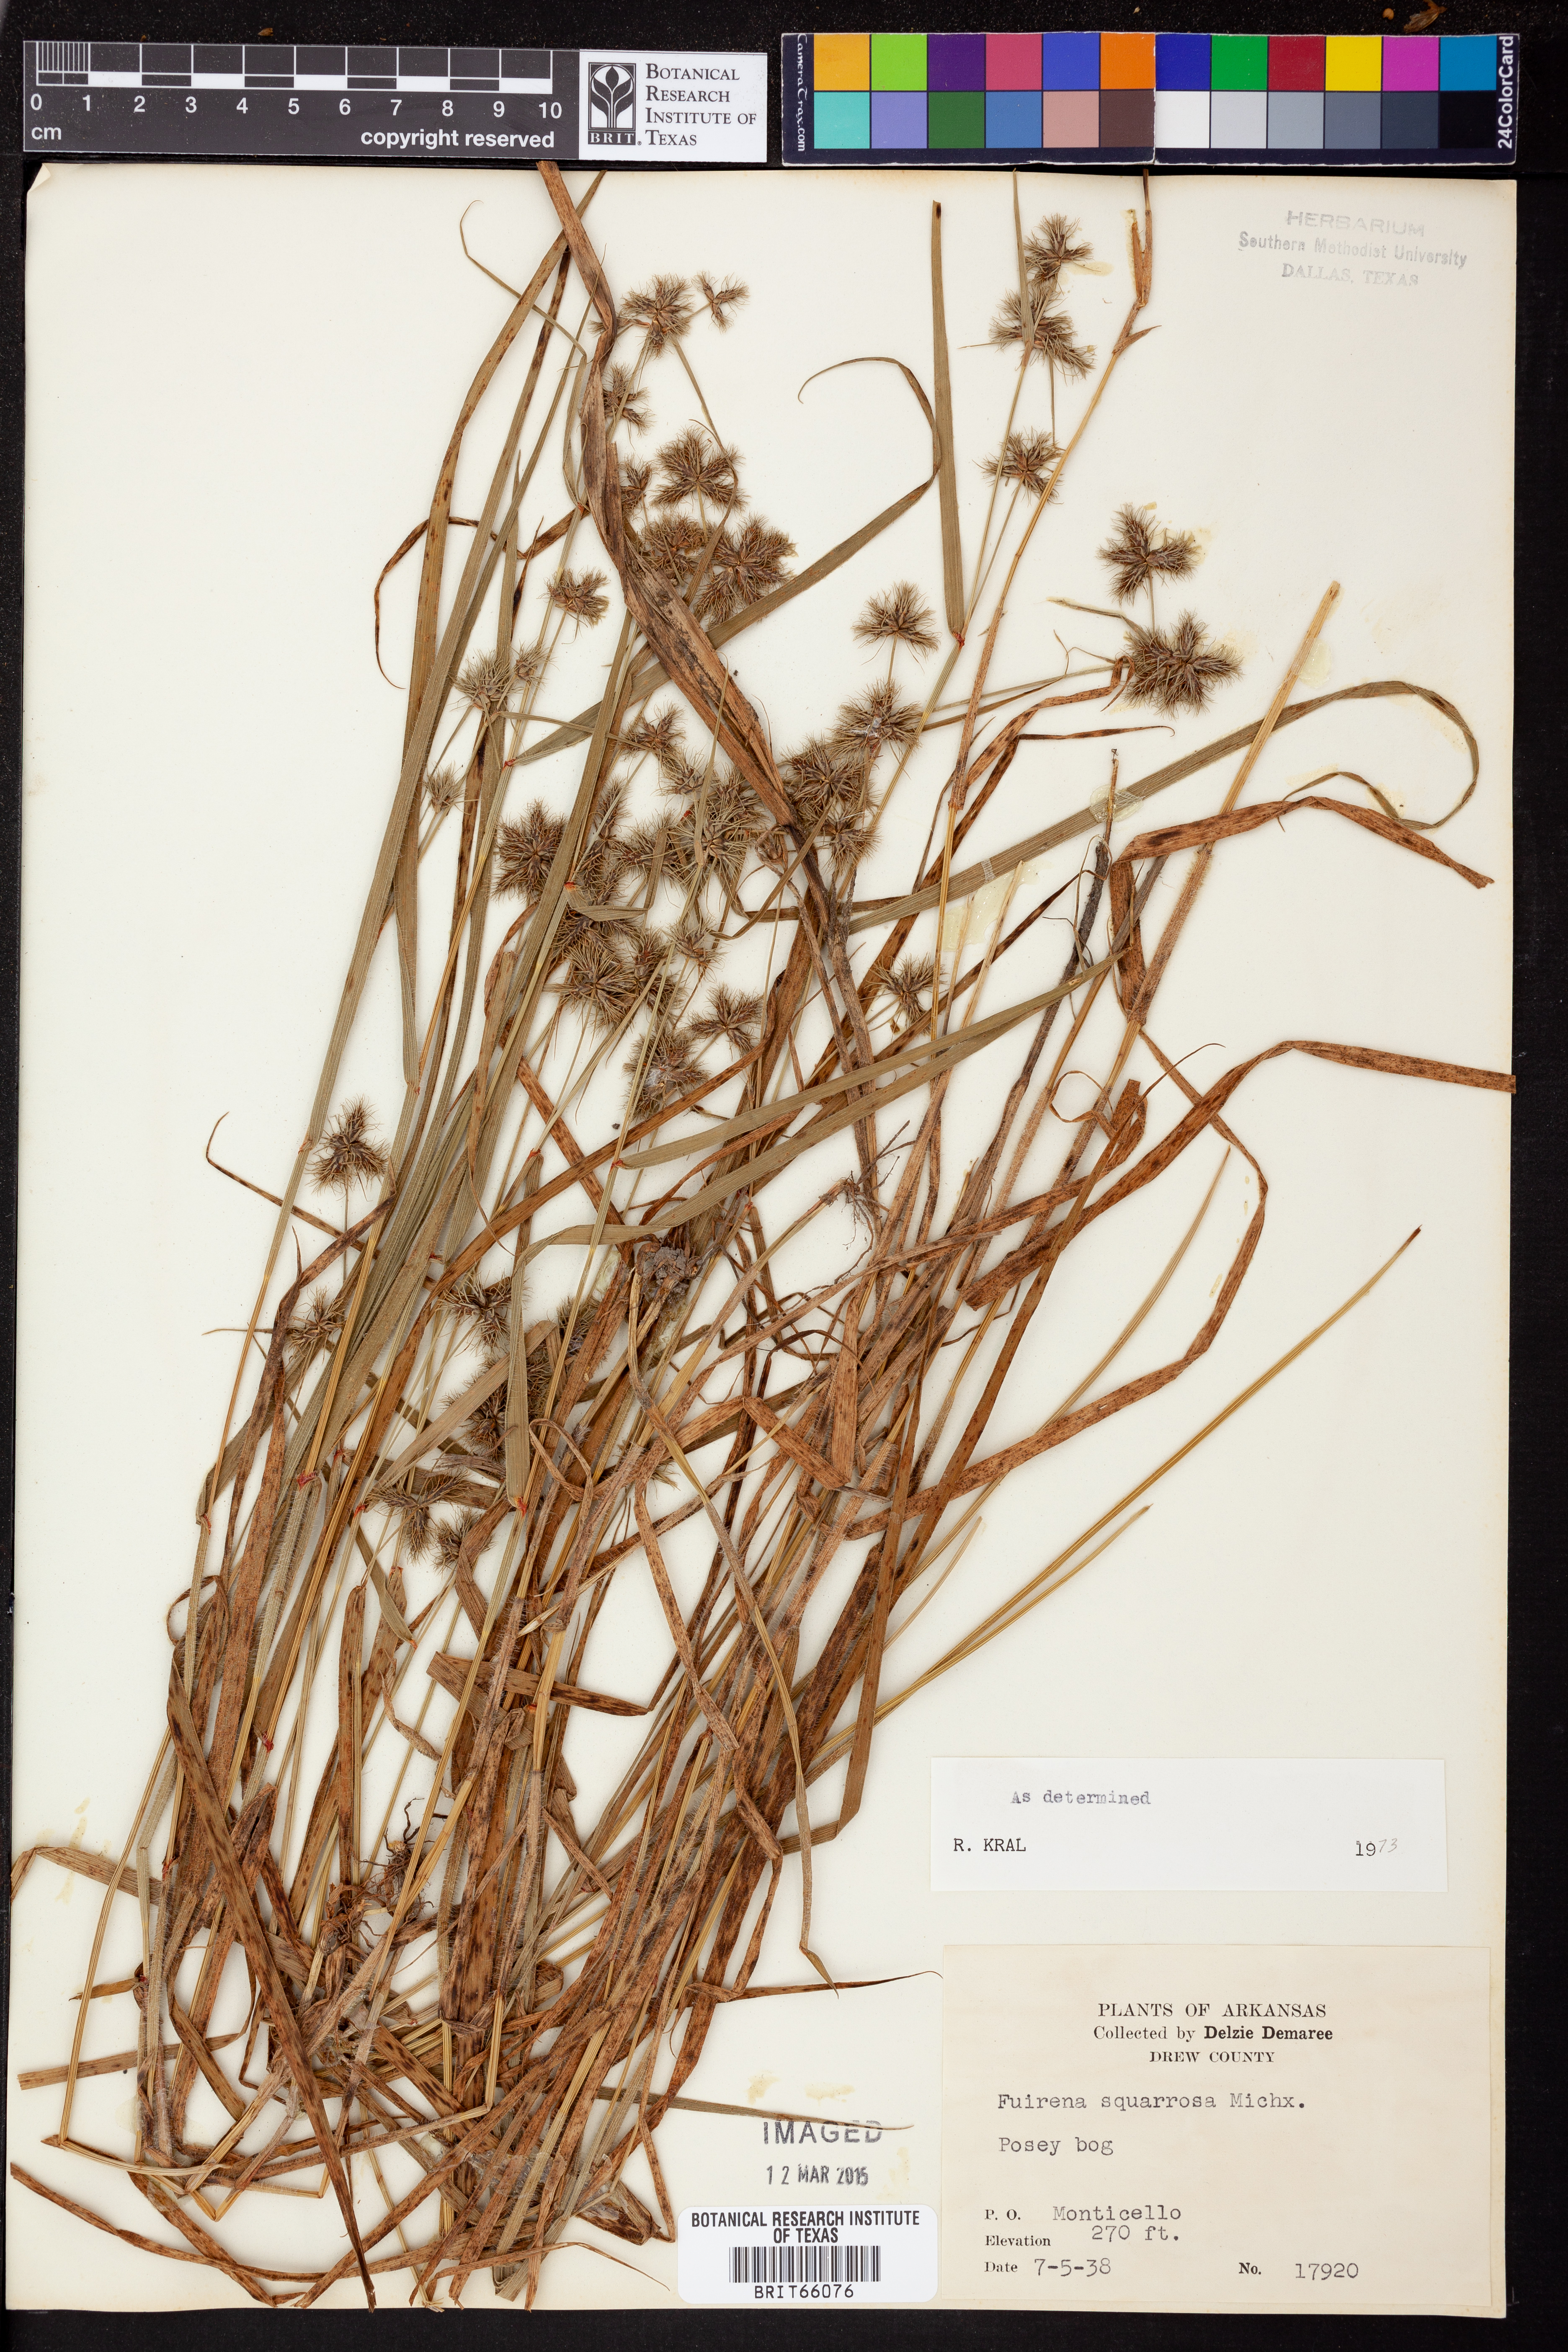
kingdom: Plantae
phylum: Tracheophyta
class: Liliopsida
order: Poales
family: Cyperaceae
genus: Fuirena
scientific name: Fuirena squarrosa
